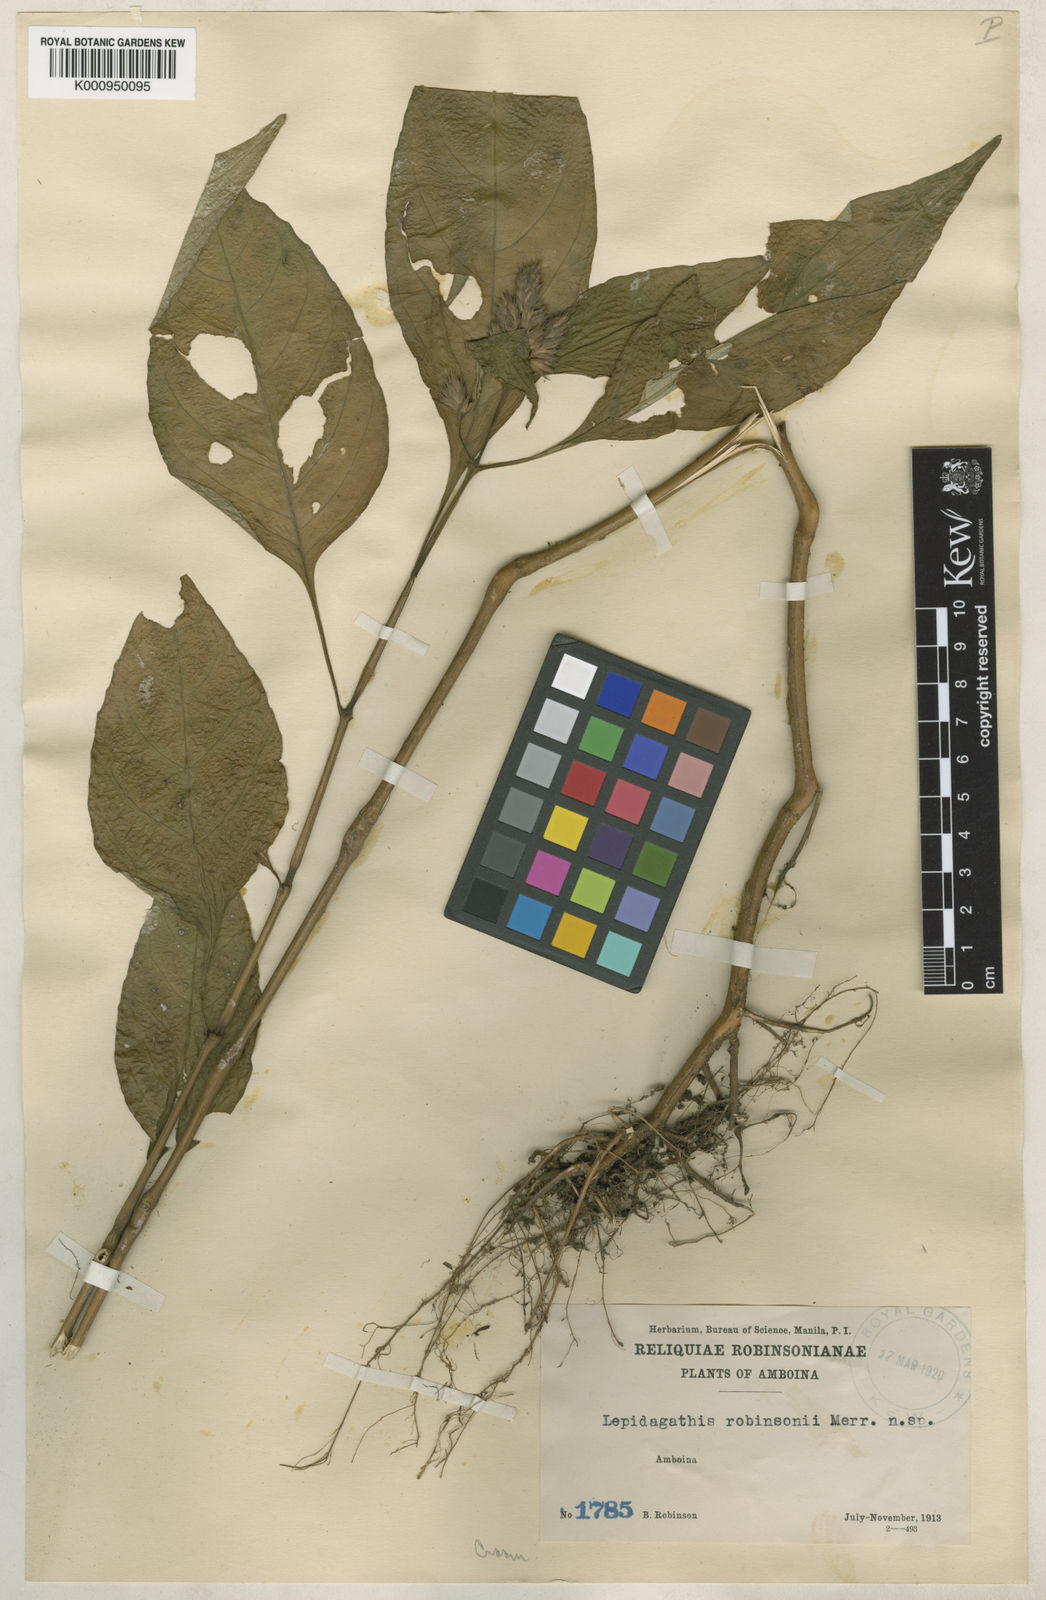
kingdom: Plantae
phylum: Tracheophyta
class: Magnoliopsida
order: Lamiales
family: Acanthaceae
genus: Lepidagathis
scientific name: Lepidagathis robinsonii
